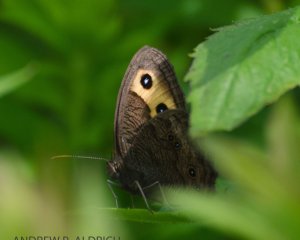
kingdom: Animalia
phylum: Arthropoda
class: Insecta
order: Lepidoptera
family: Nymphalidae
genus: Cercyonis
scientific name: Cercyonis pegala
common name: Common Wood-Nymph
